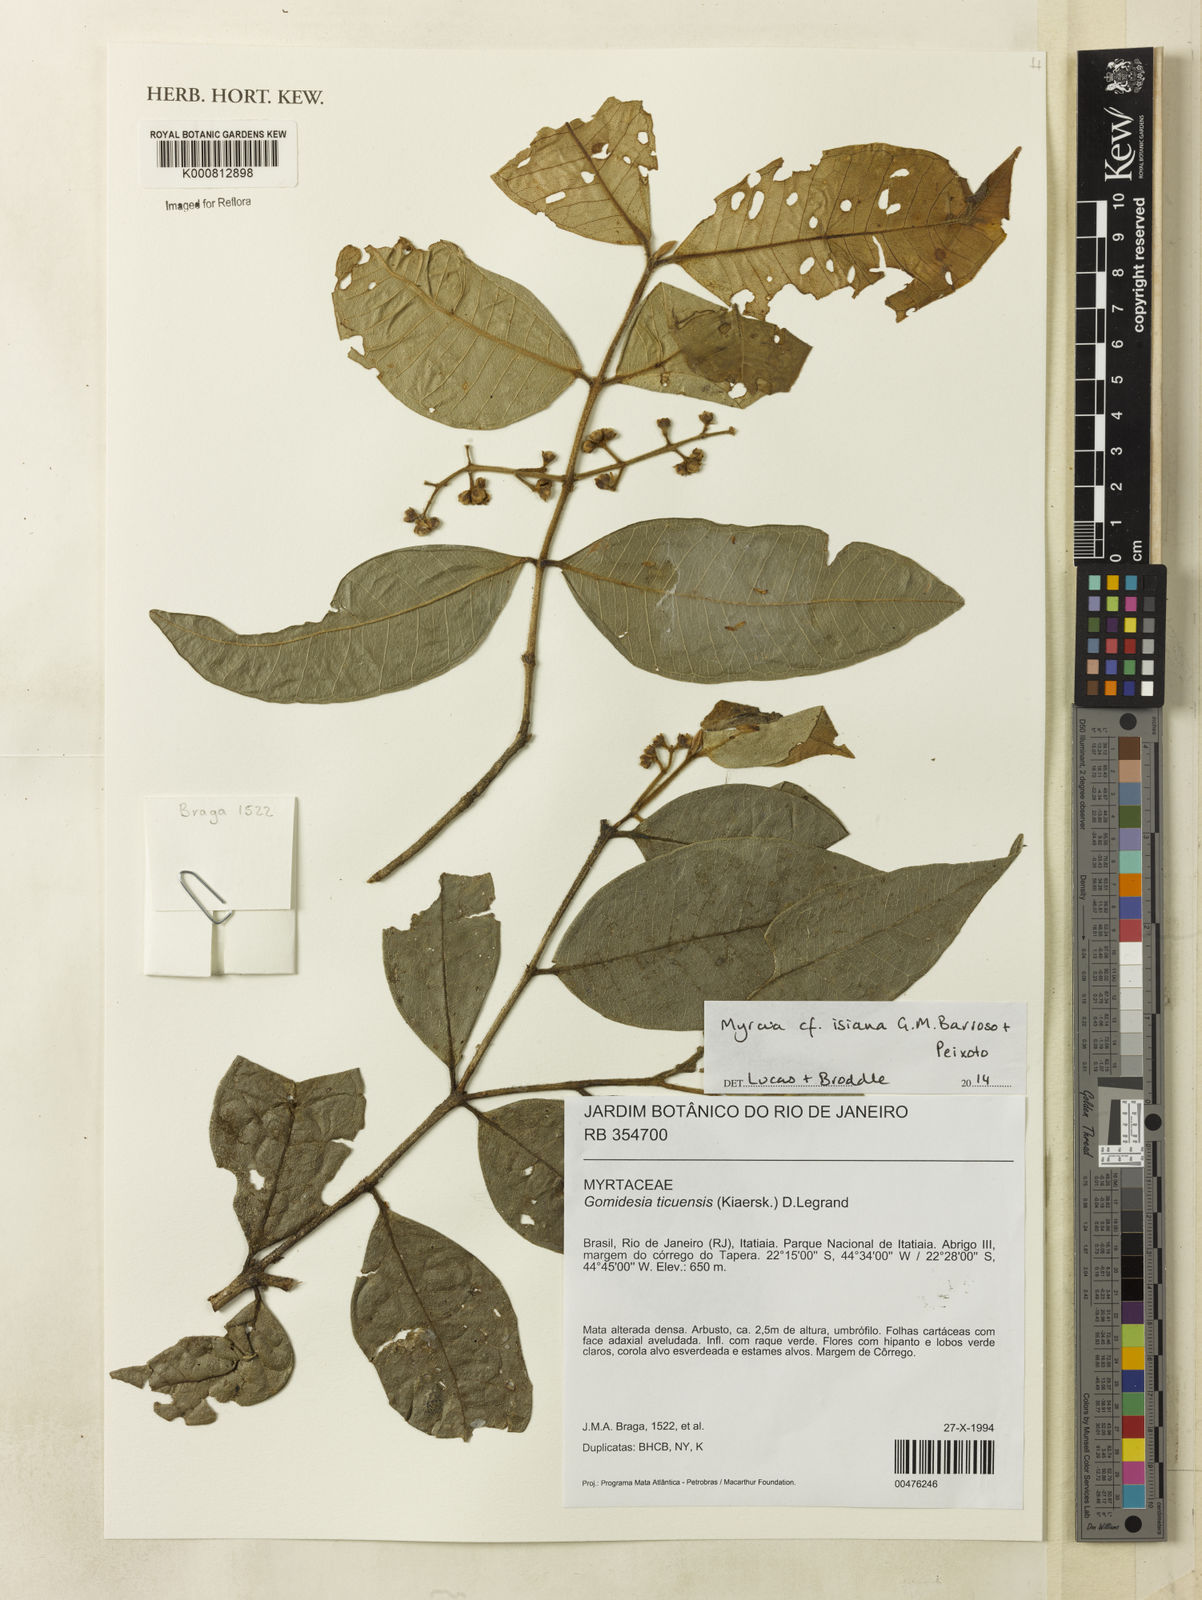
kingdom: Plantae
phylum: Tracheophyta
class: Magnoliopsida
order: Myrtales
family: Myrtaceae
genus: Myrcia
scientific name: Myrcia
